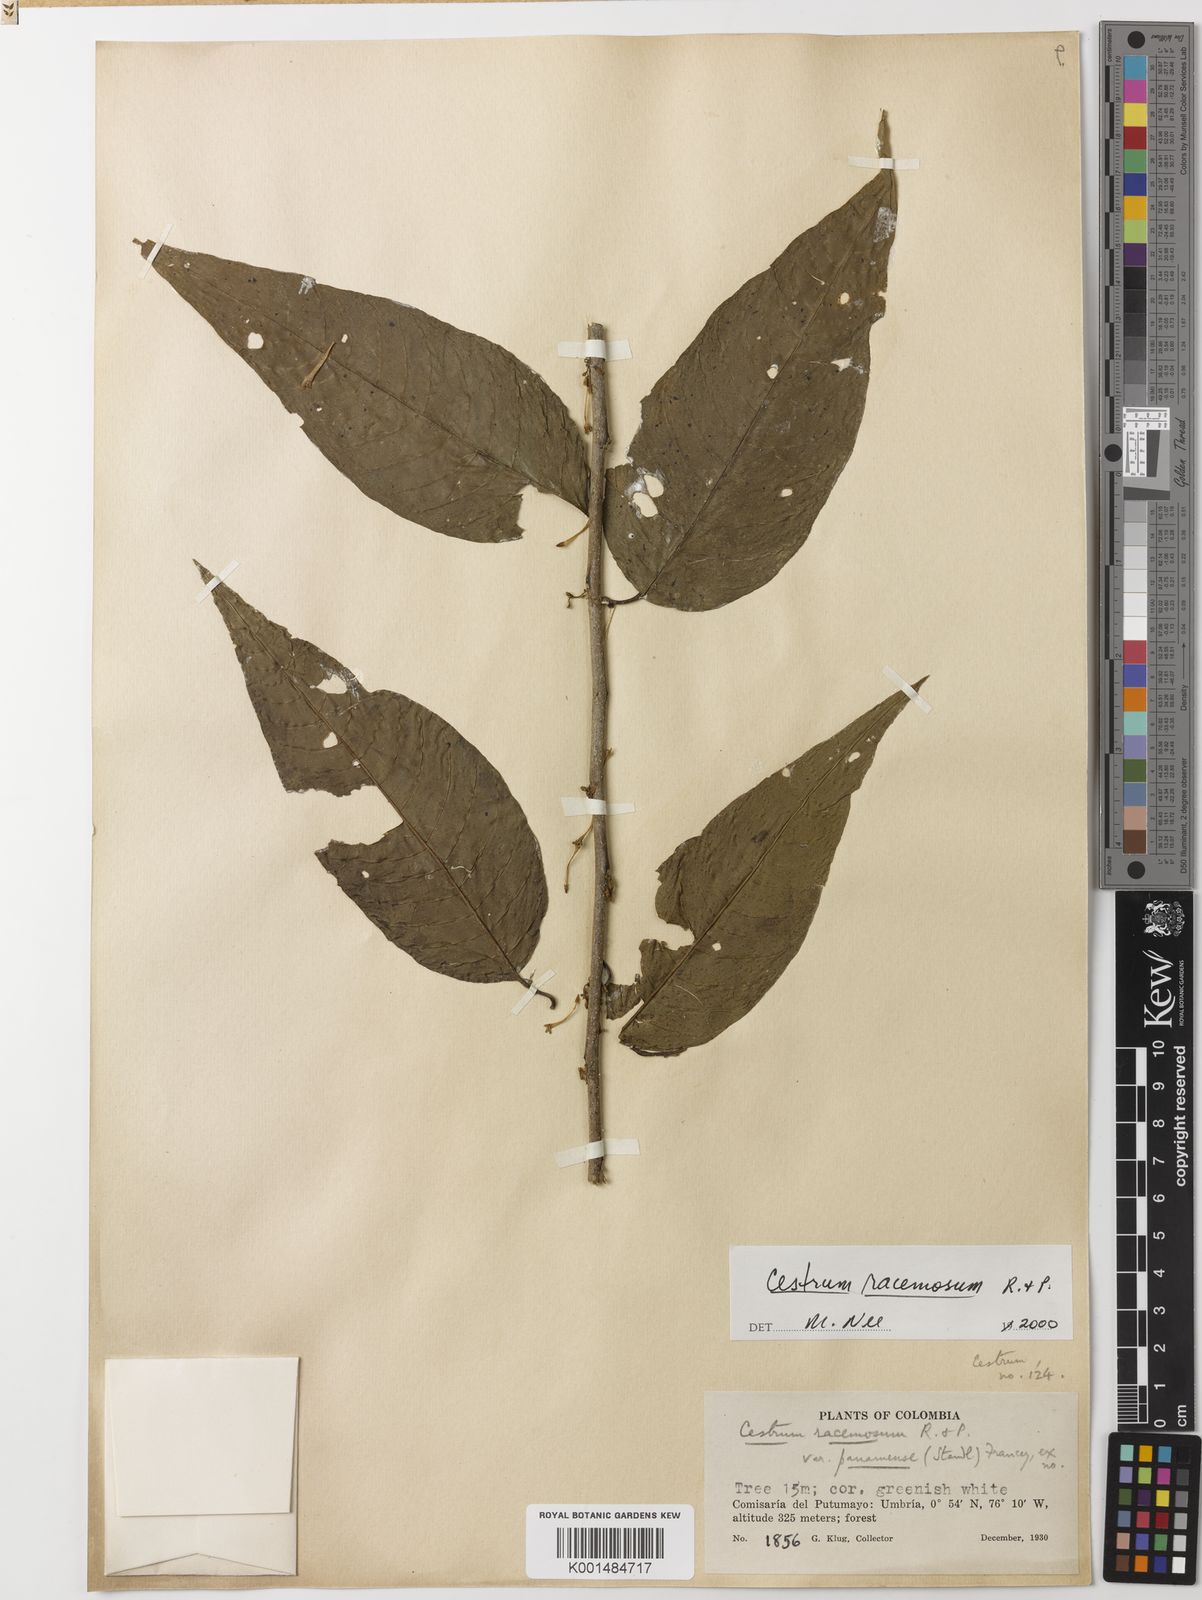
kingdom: Plantae
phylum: Tracheophyta
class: Magnoliopsida
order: Solanales
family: Solanaceae
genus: Cestrum
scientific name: Cestrum racemosum
